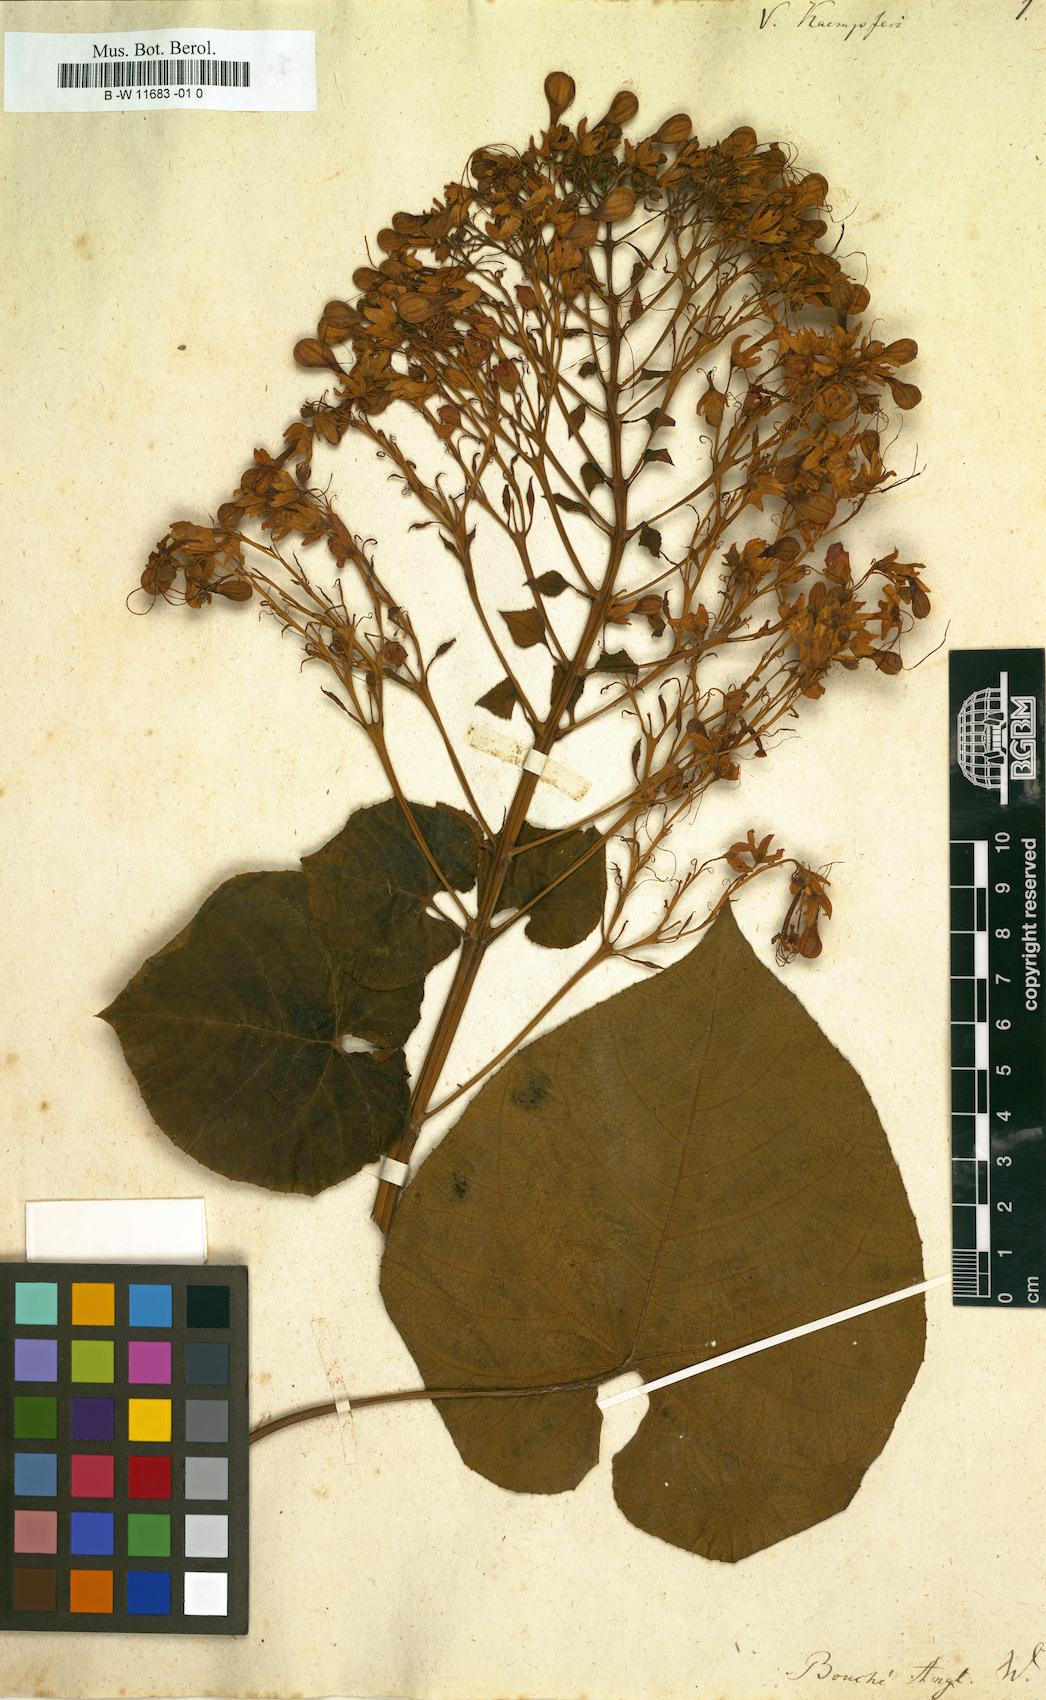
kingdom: Plantae
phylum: Tracheophyta
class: Magnoliopsida
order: Lamiales
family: Lamiaceae
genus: Clerodendrum
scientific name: Clerodendrum japonicum
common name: Japanese glorybower
